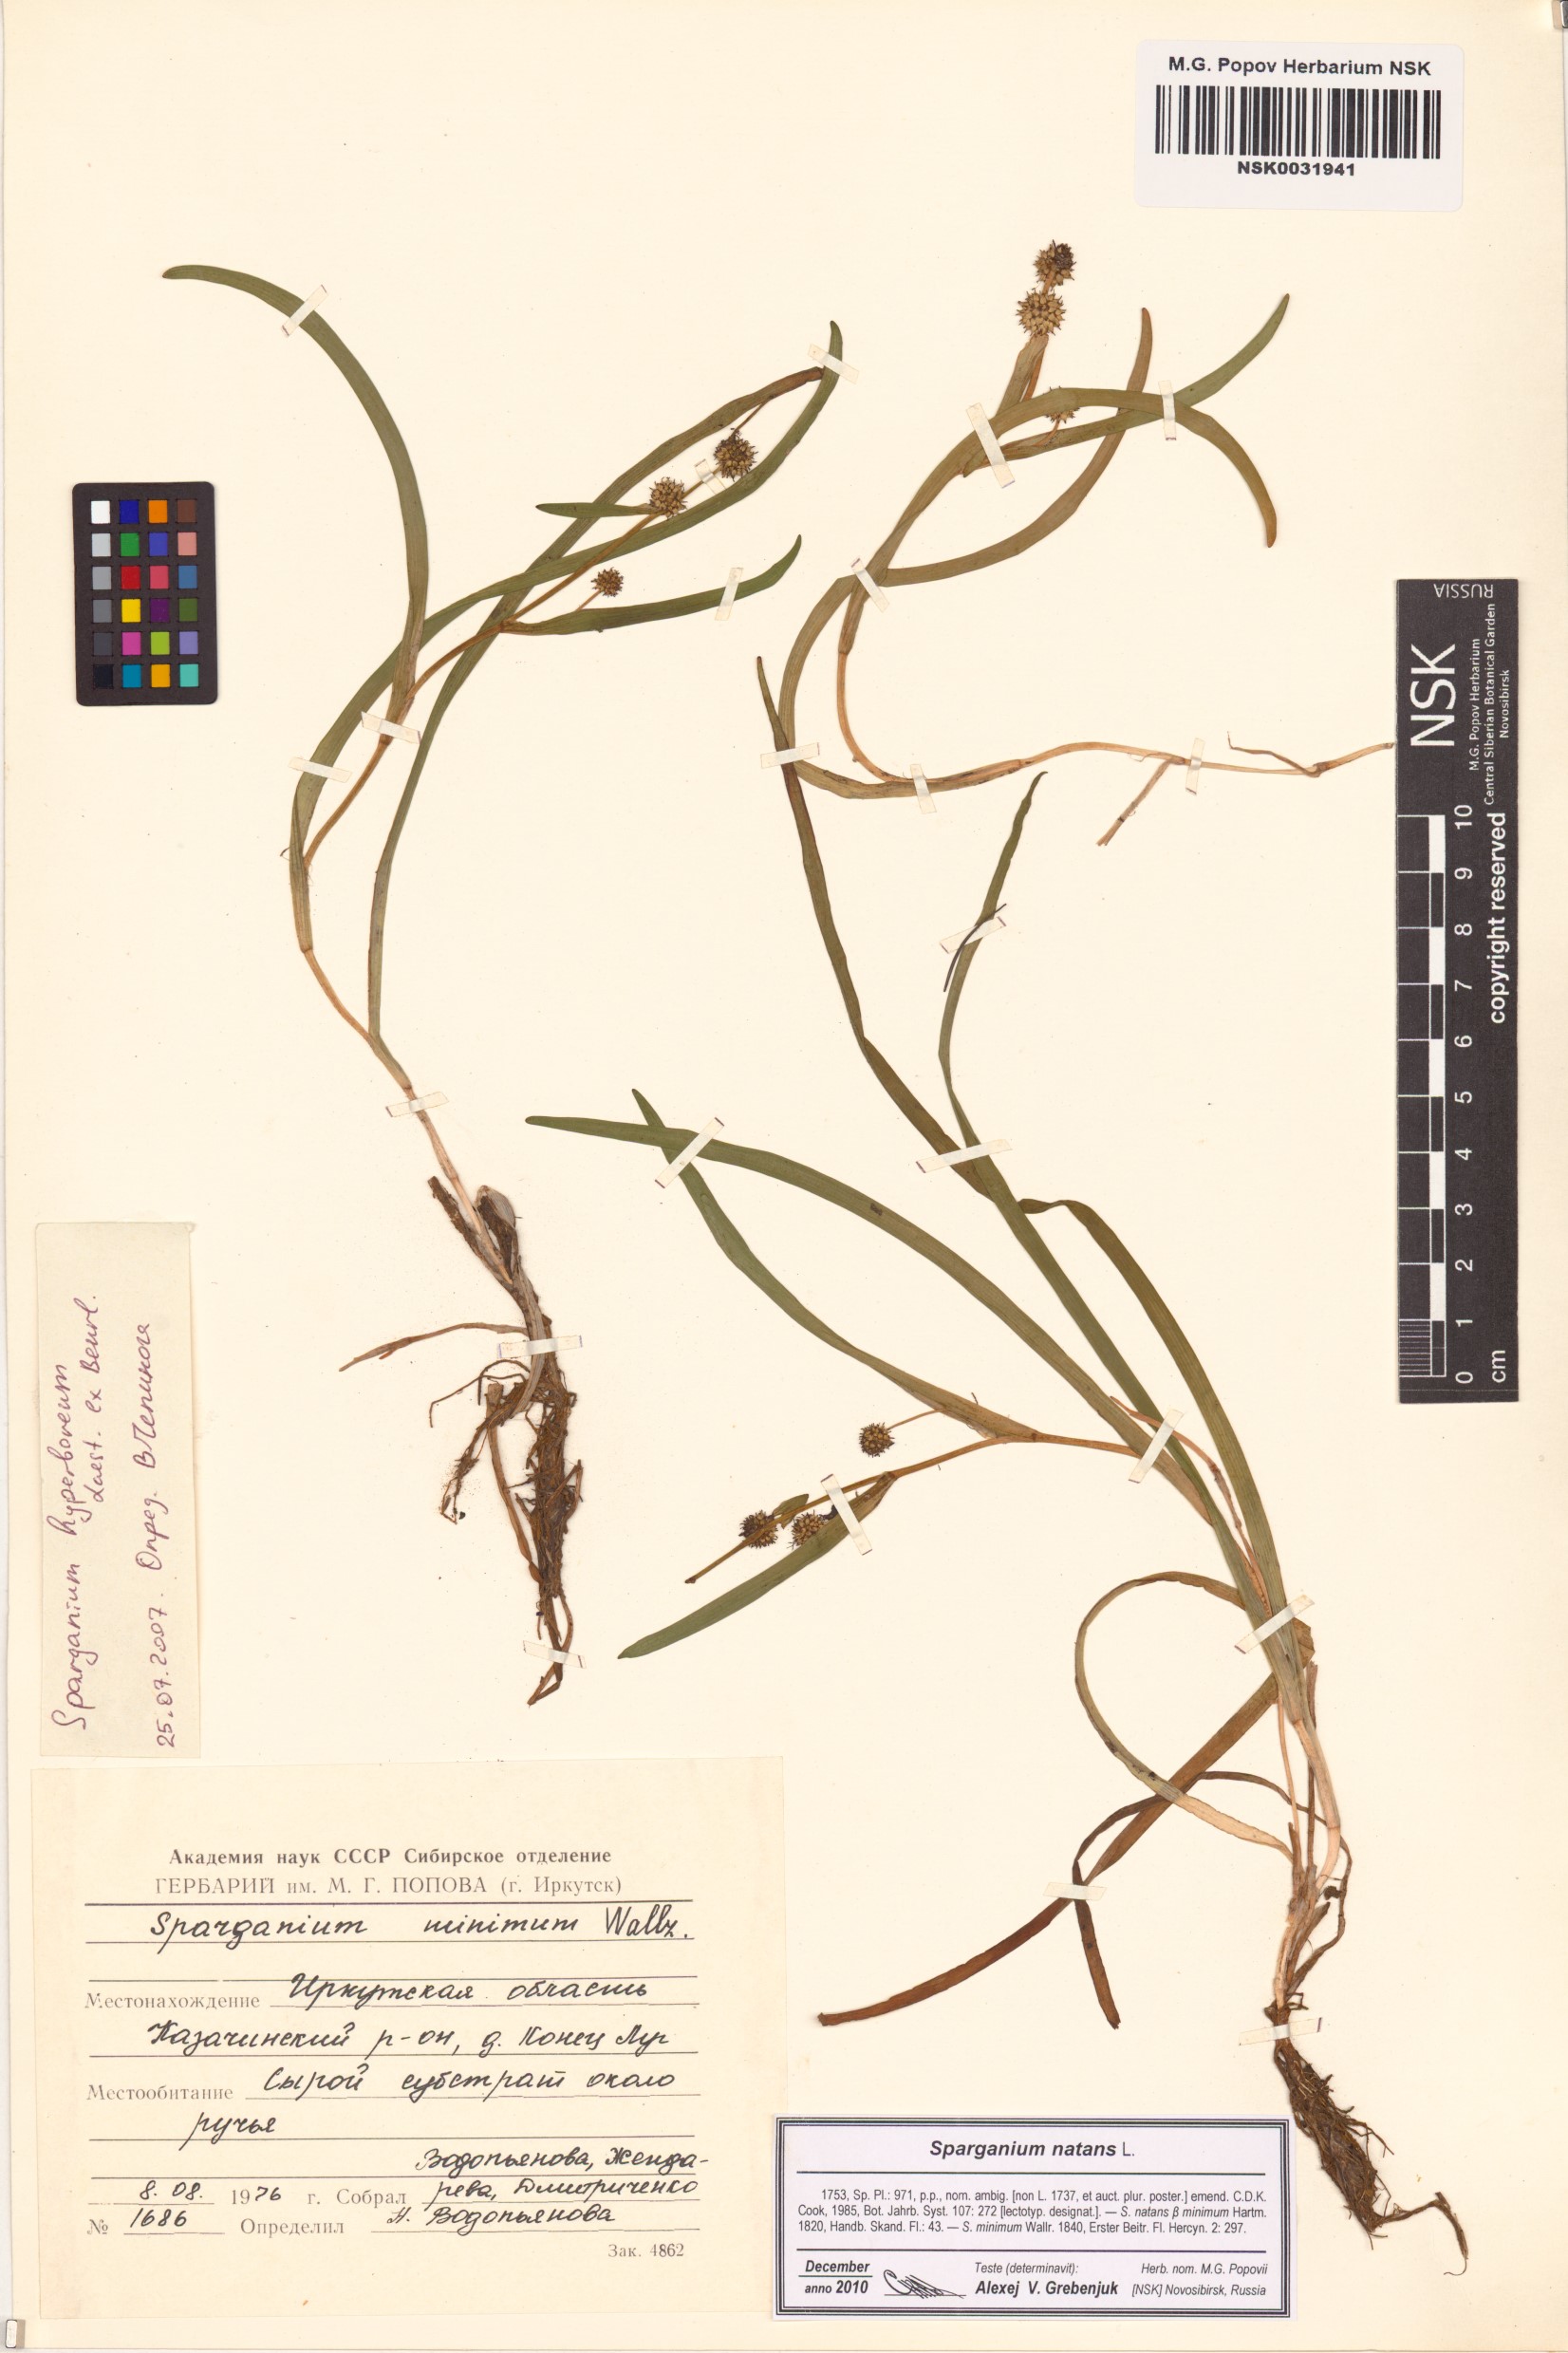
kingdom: Plantae
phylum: Tracheophyta
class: Liliopsida
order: Poales
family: Typhaceae
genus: Sparganium
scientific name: Sparganium natans
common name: Least bur-reed
